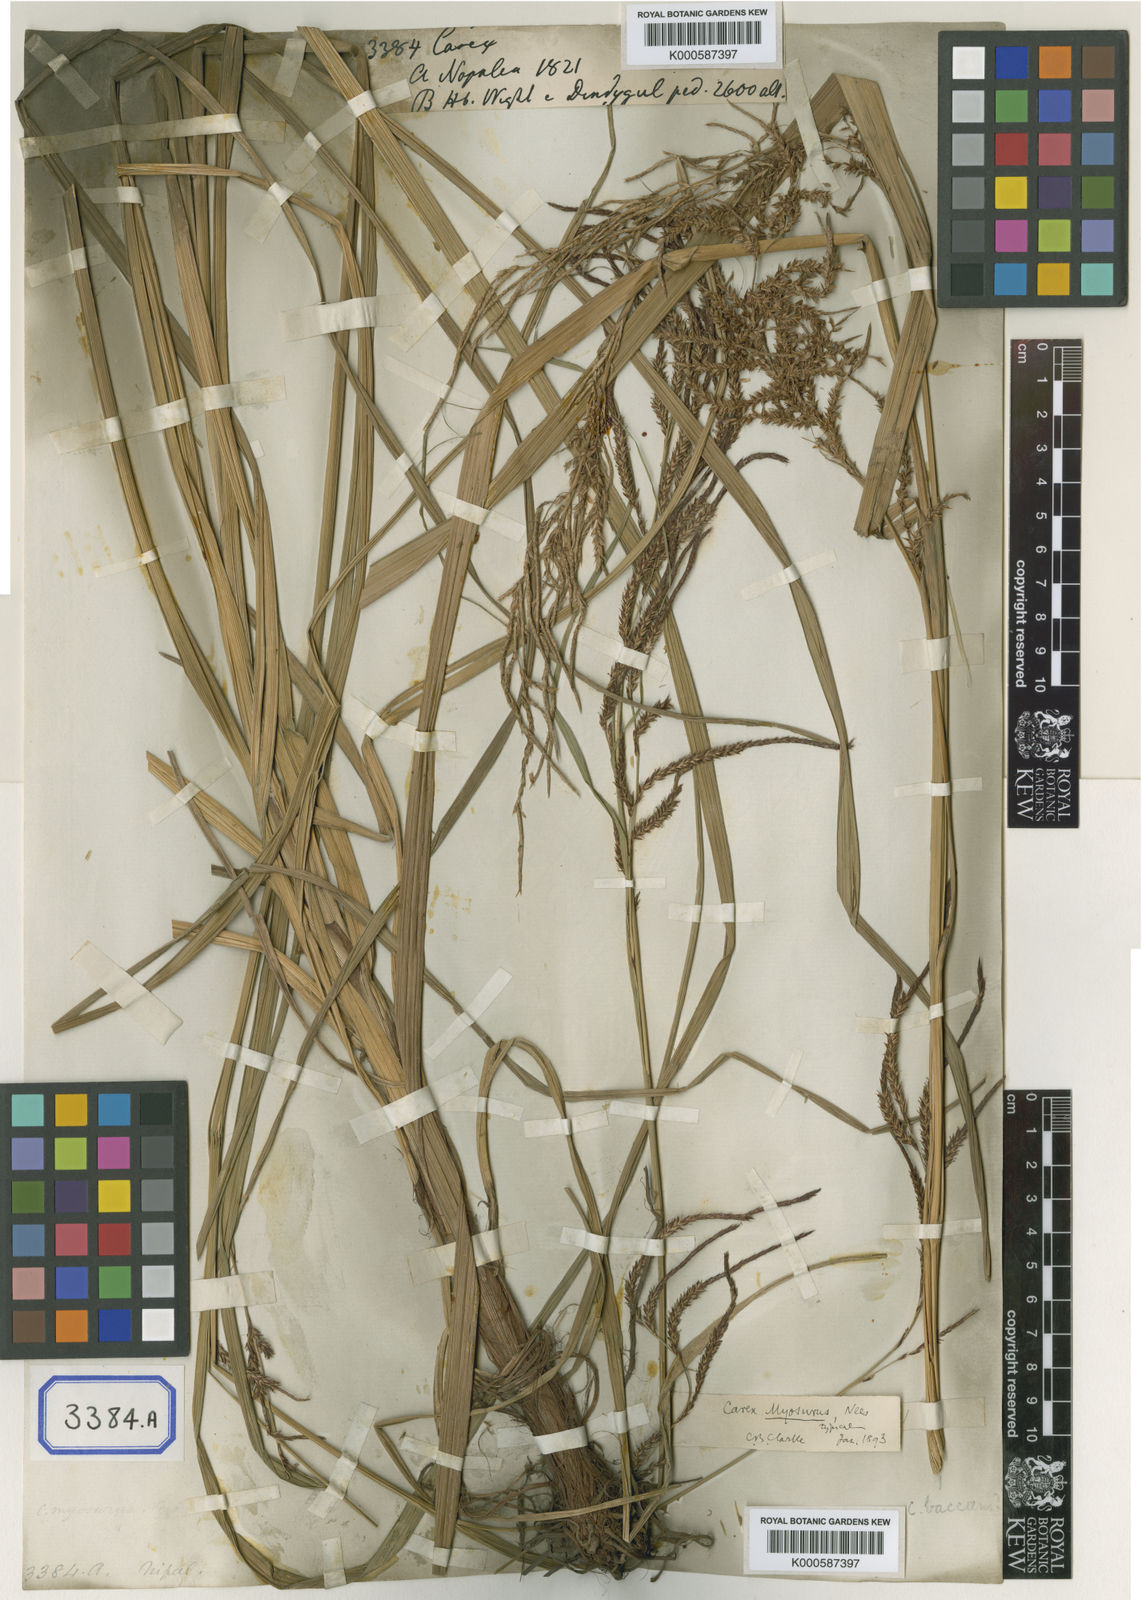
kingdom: Plantae
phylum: Tracheophyta
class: Liliopsida
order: Poales
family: Cyperaceae
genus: Carex
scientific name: Carex
